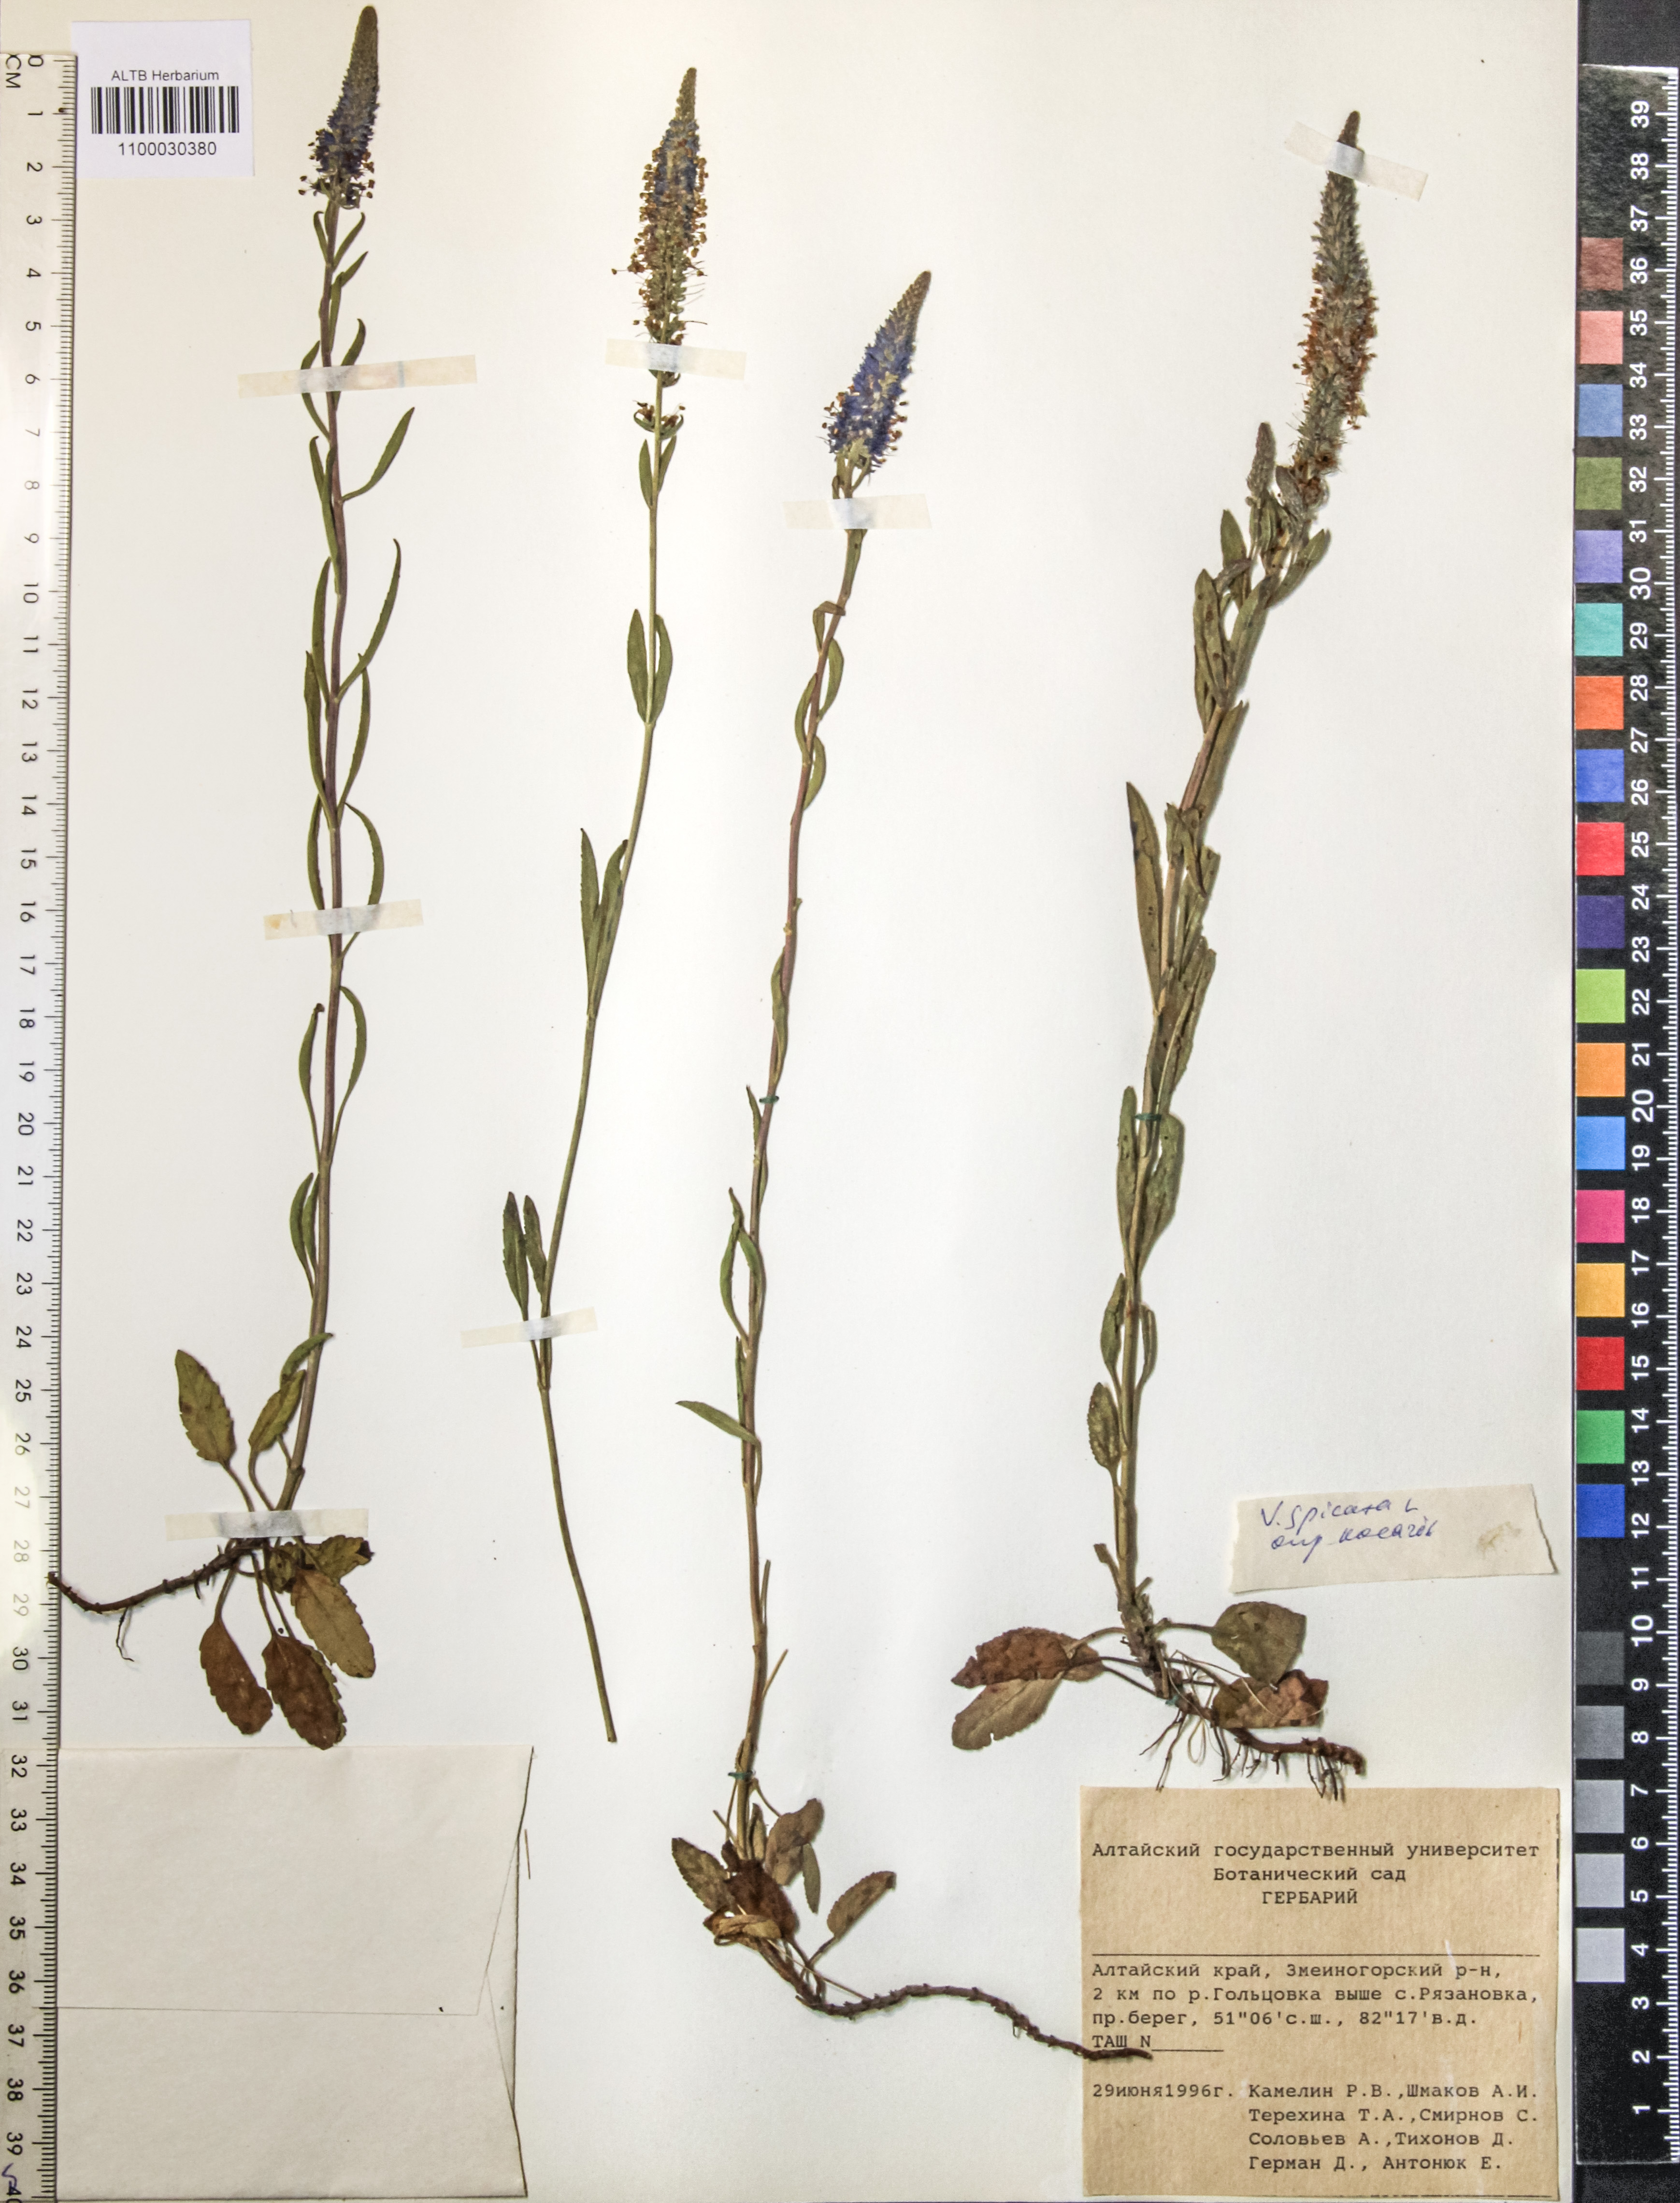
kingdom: Plantae
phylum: Tracheophyta
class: Magnoliopsida
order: Lamiales
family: Plantaginaceae
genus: Veronica
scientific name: Veronica spicata
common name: Spiked speedwell
